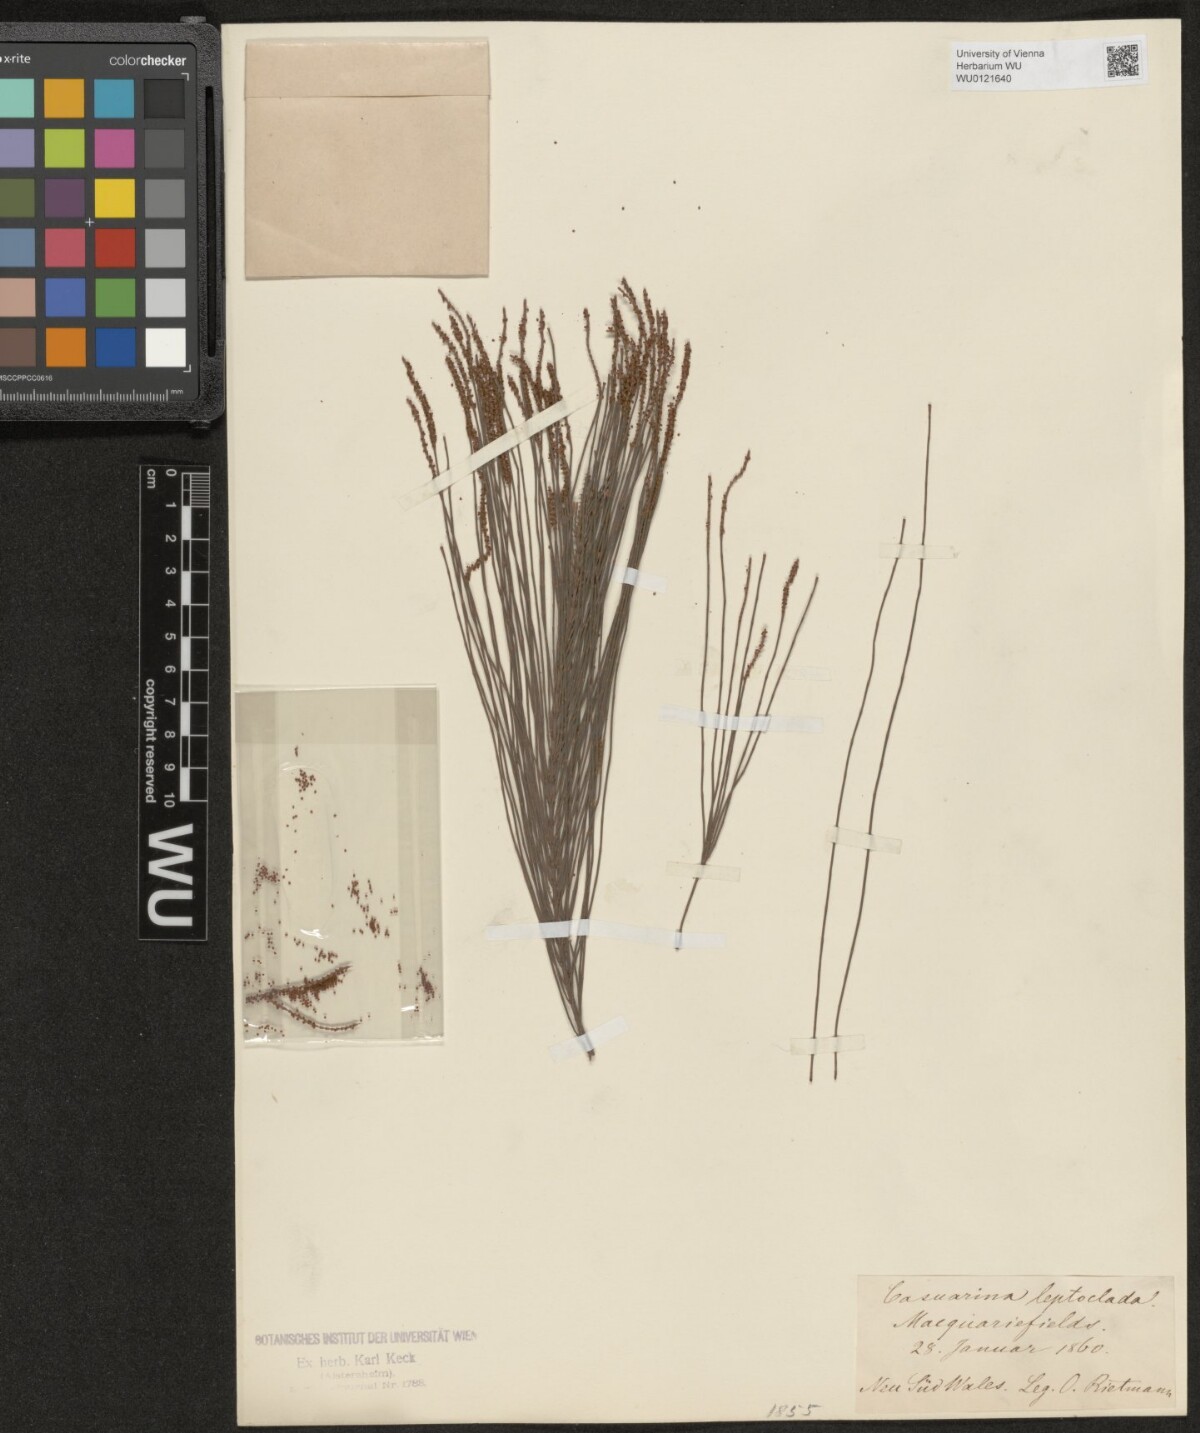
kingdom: Plantae
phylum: Tracheophyta
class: Magnoliopsida
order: Fagales
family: Casuarinaceae
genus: Allocasuarina
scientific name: Allocasuarina littoralis
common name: Black she-oak
